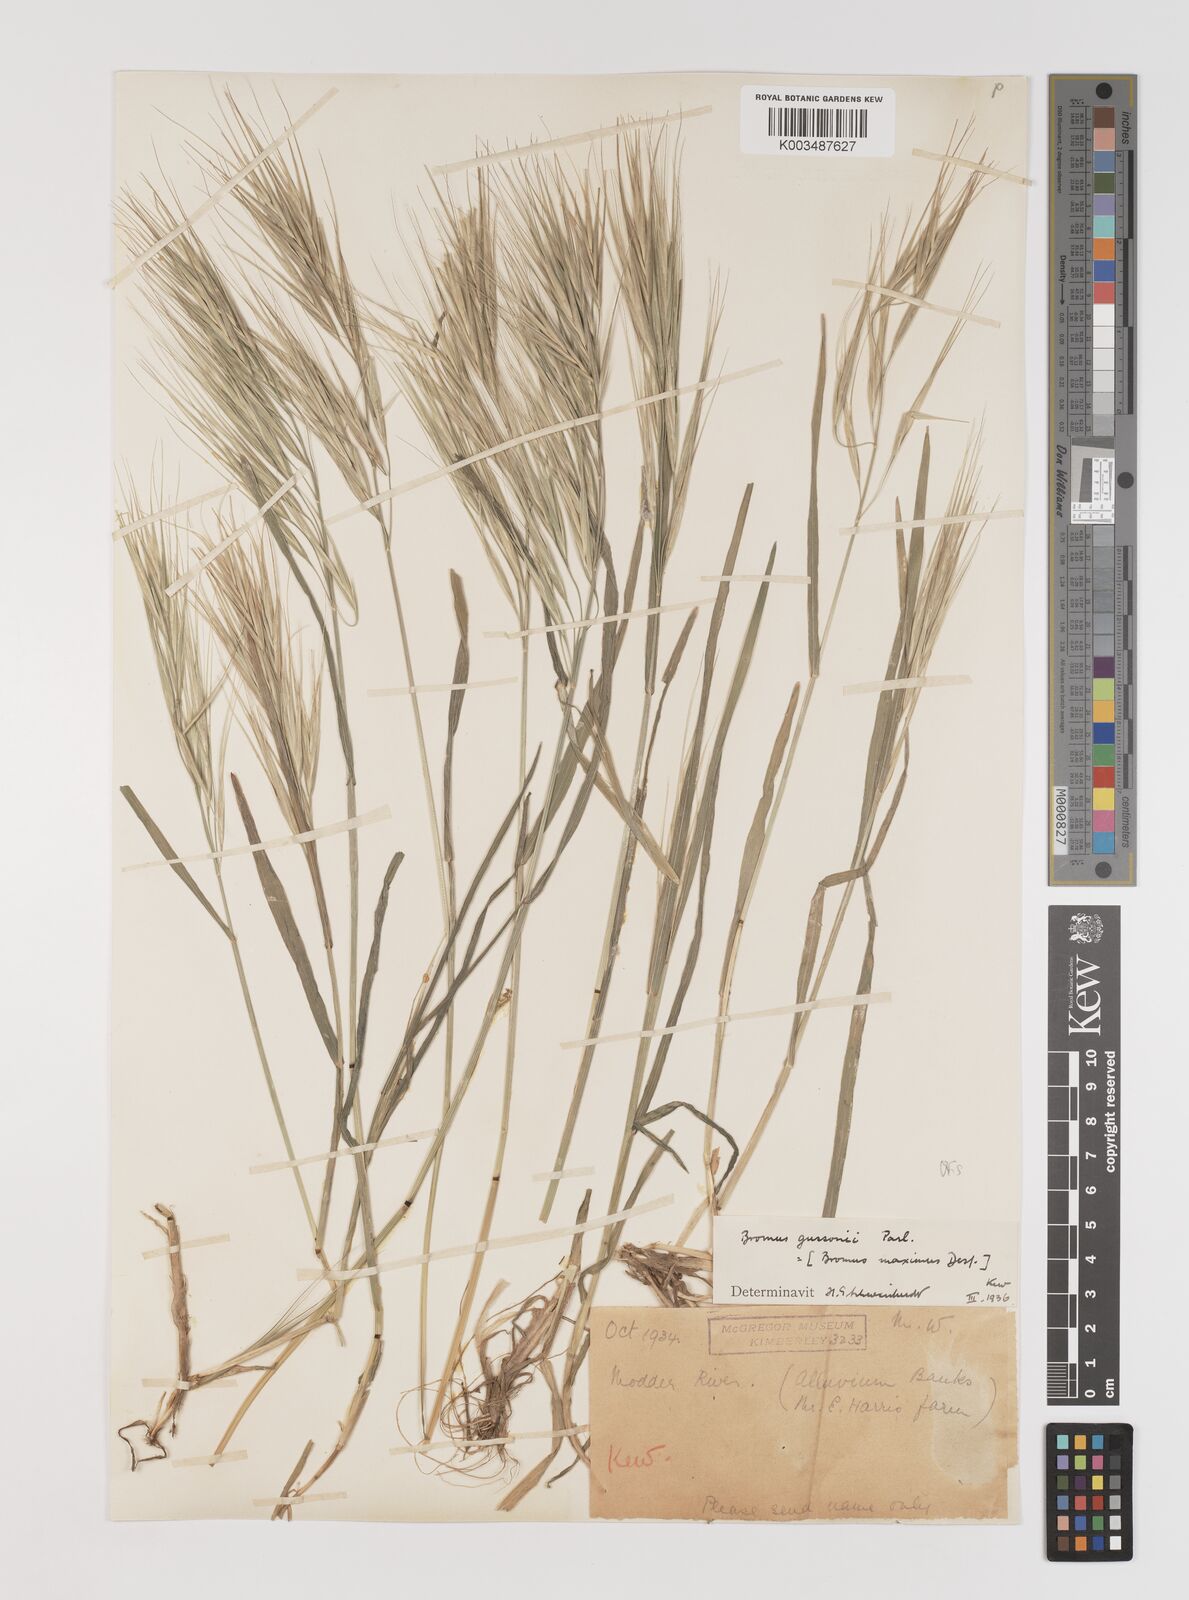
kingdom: Plantae
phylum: Tracheophyta
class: Liliopsida
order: Poales
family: Poaceae
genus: Bromus
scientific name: Bromus diandrus
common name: Ripgut brome
